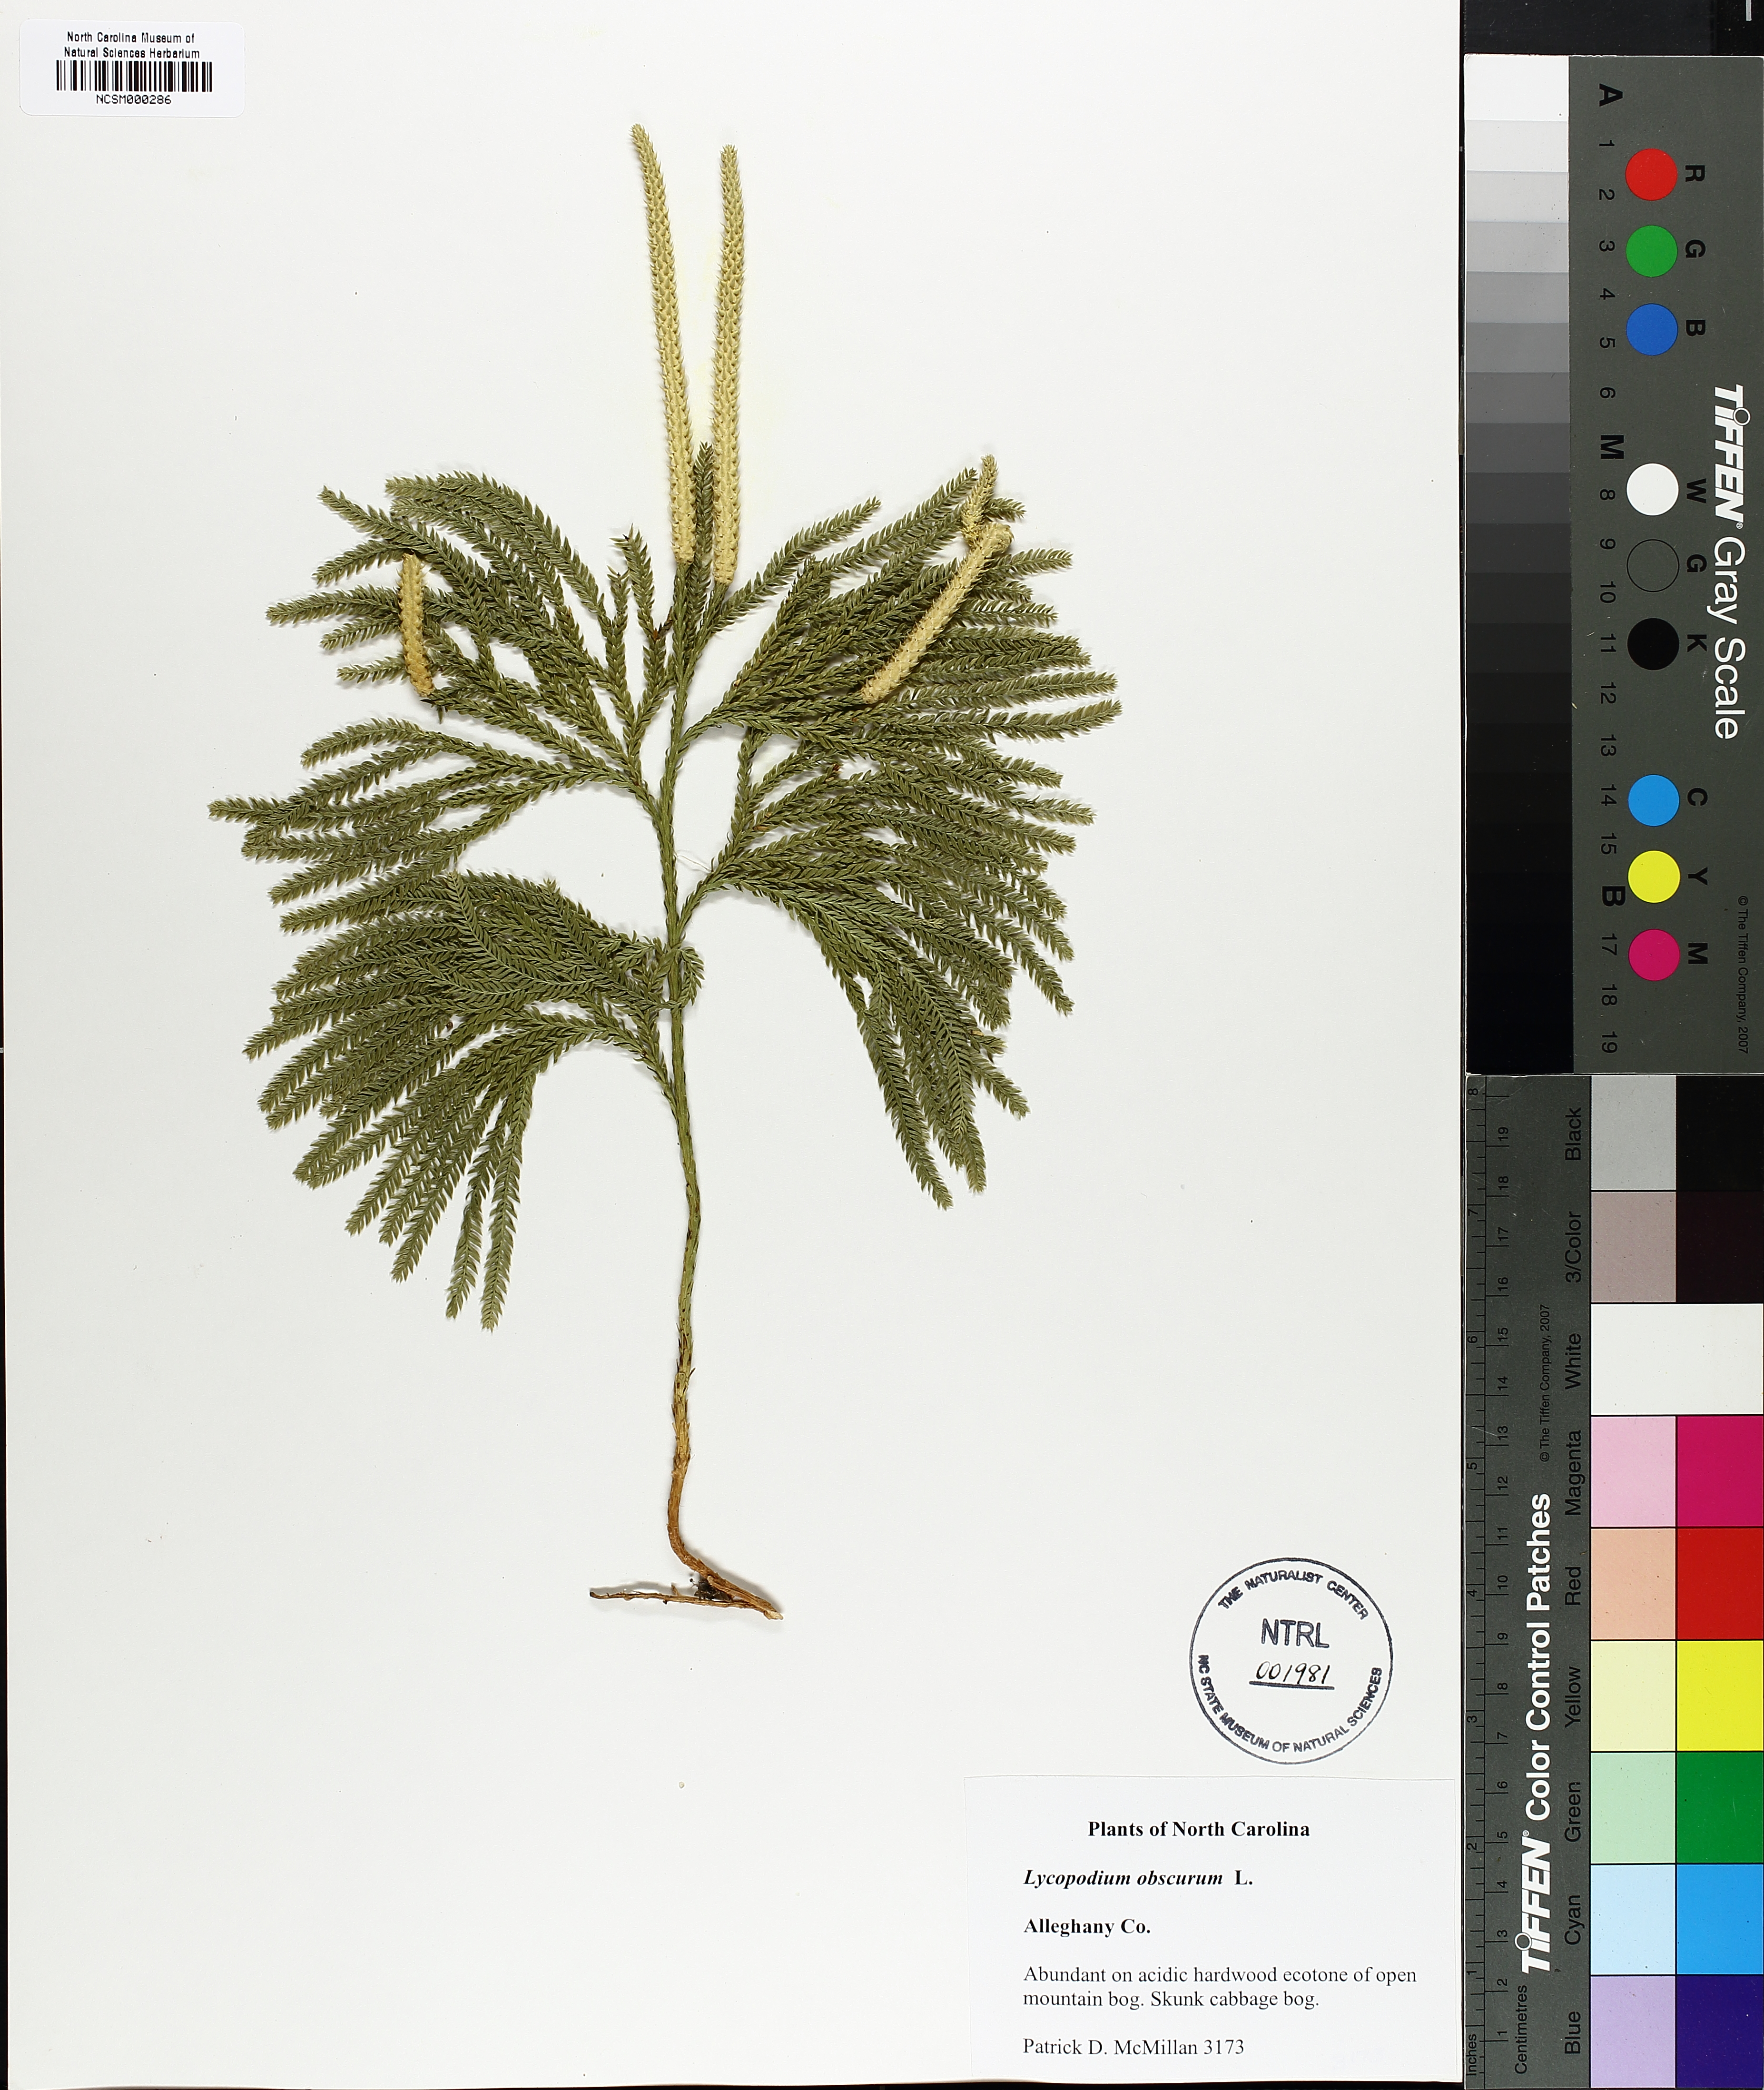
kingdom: Plantae
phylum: Tracheophyta
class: Lycopodiopsida
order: Lycopodiales
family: Lycopodiaceae
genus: Dendrolycopodium
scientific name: Dendrolycopodium obscurum
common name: Common ground-pine
